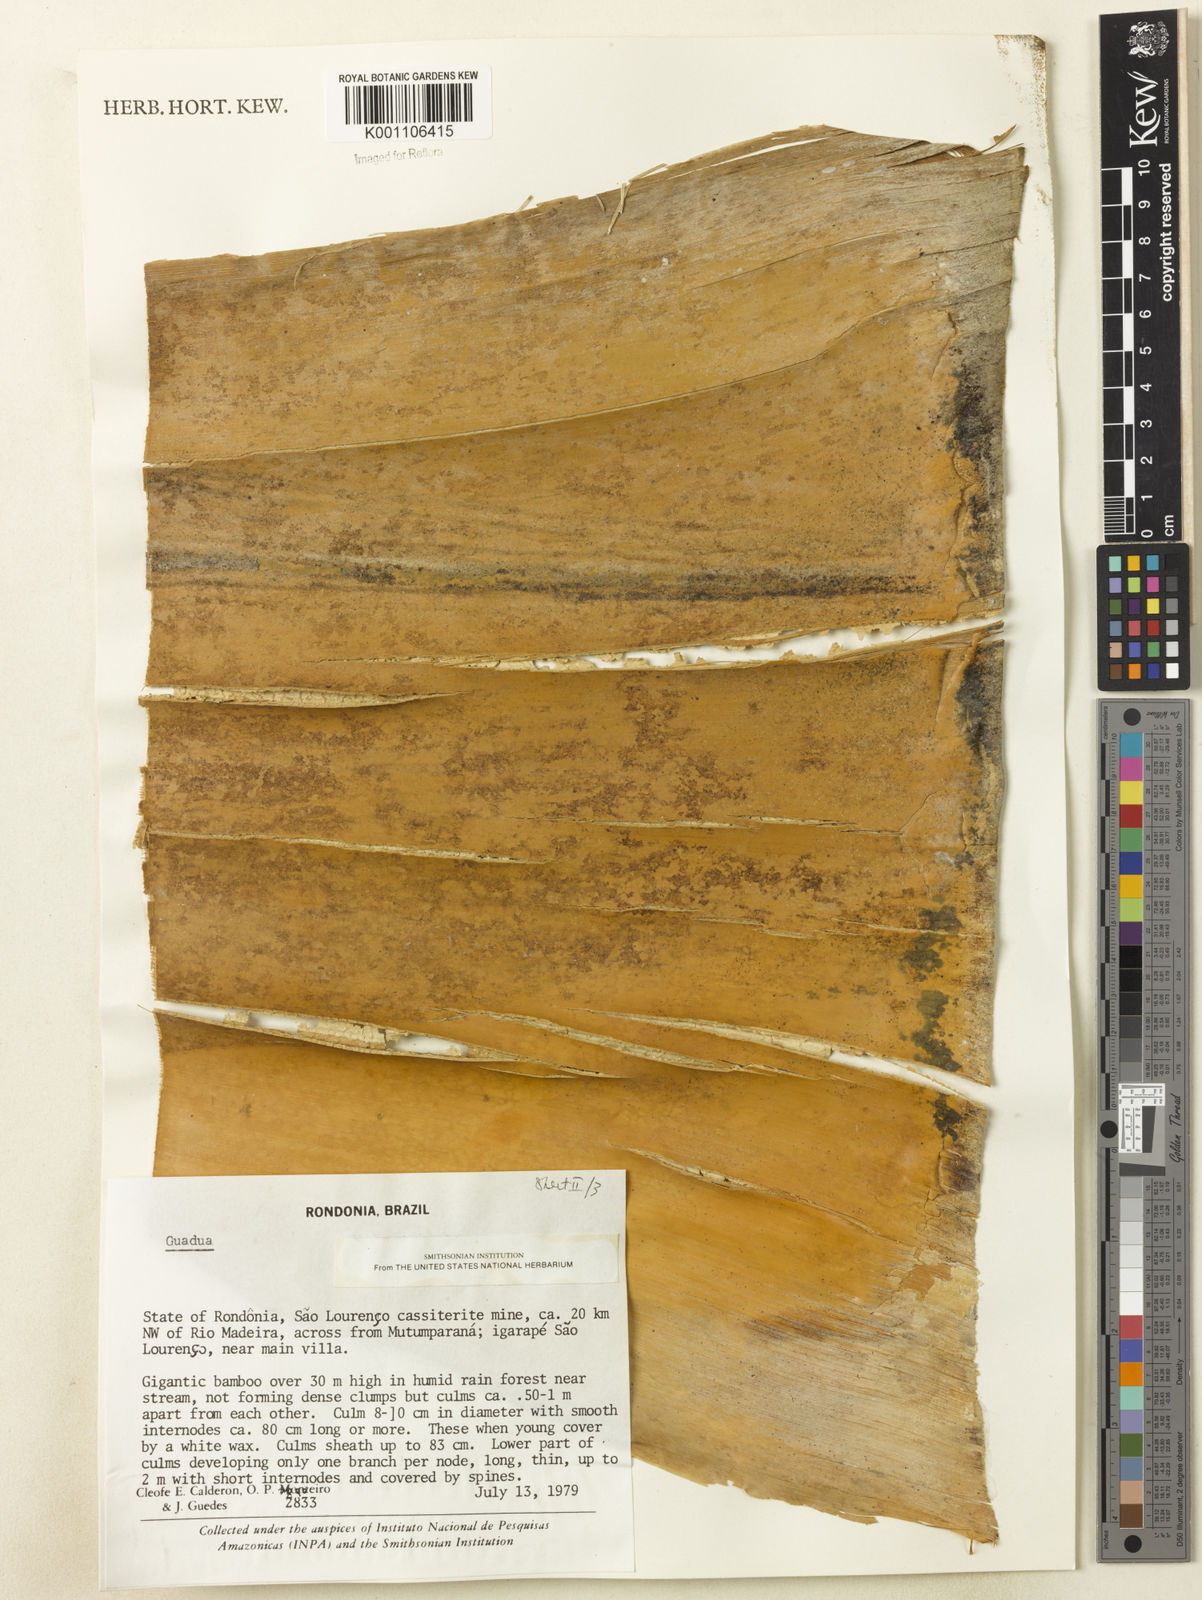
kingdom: Plantae
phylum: Tracheophyta
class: Liliopsida
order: Poales
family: Poaceae
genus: Guadua
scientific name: Guadua
